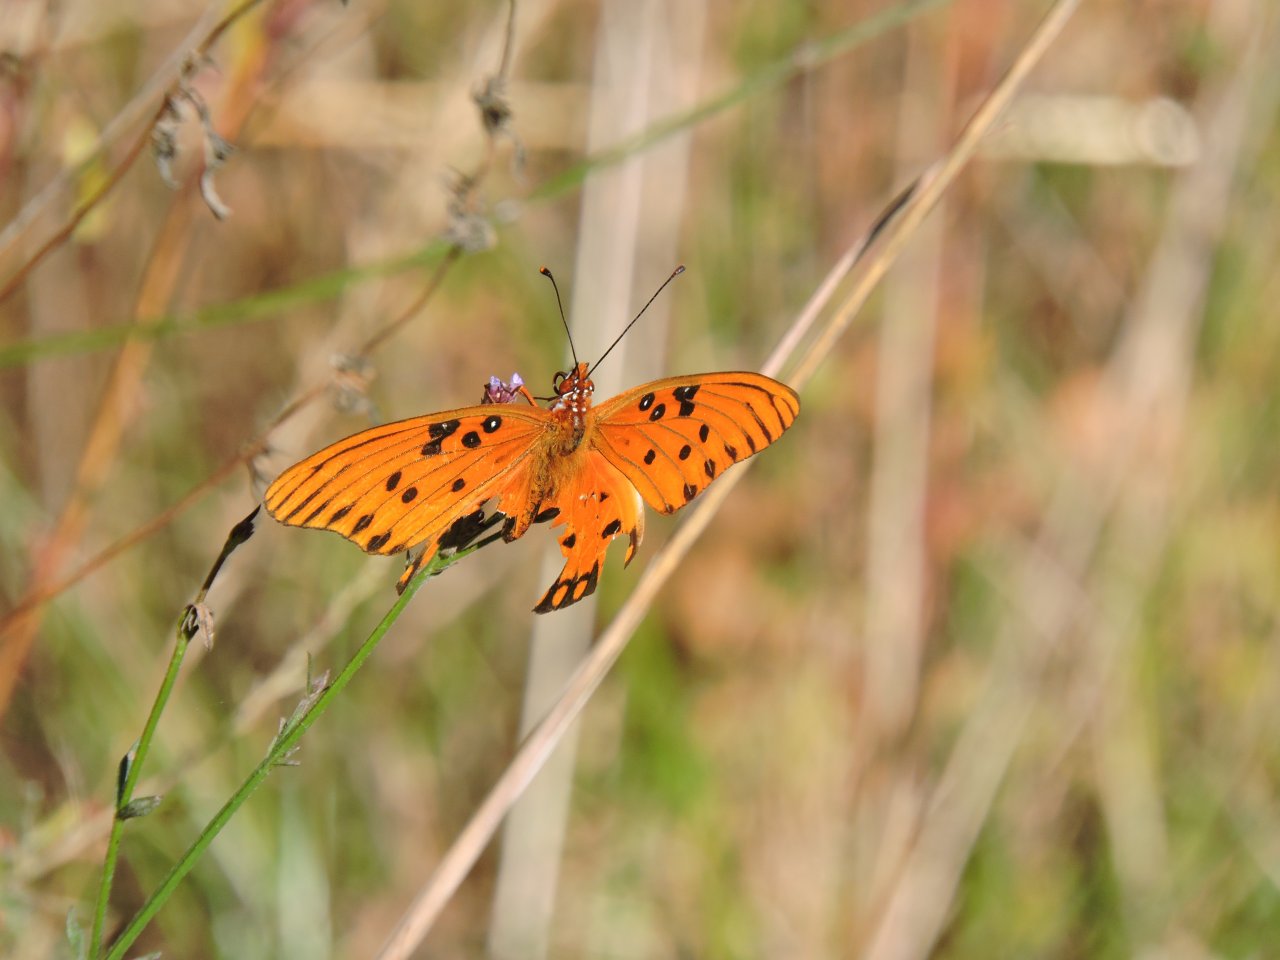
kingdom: Animalia
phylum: Arthropoda
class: Insecta
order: Lepidoptera
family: Nymphalidae
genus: Dione
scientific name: Dione vanillae
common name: Gulf Fritillary
